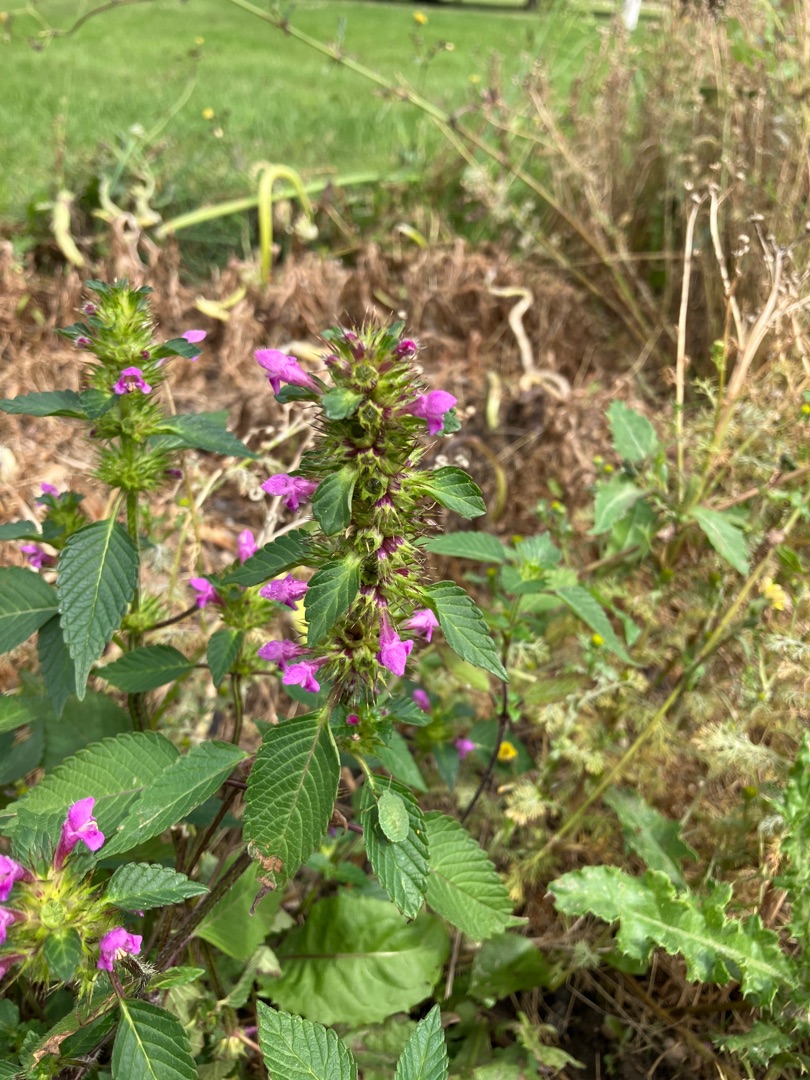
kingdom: Plantae
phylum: Tracheophyta
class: Magnoliopsida
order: Lamiales
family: Lamiaceae
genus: Galeopsis
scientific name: Galeopsis tetrahit
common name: Almindelig hanekro
